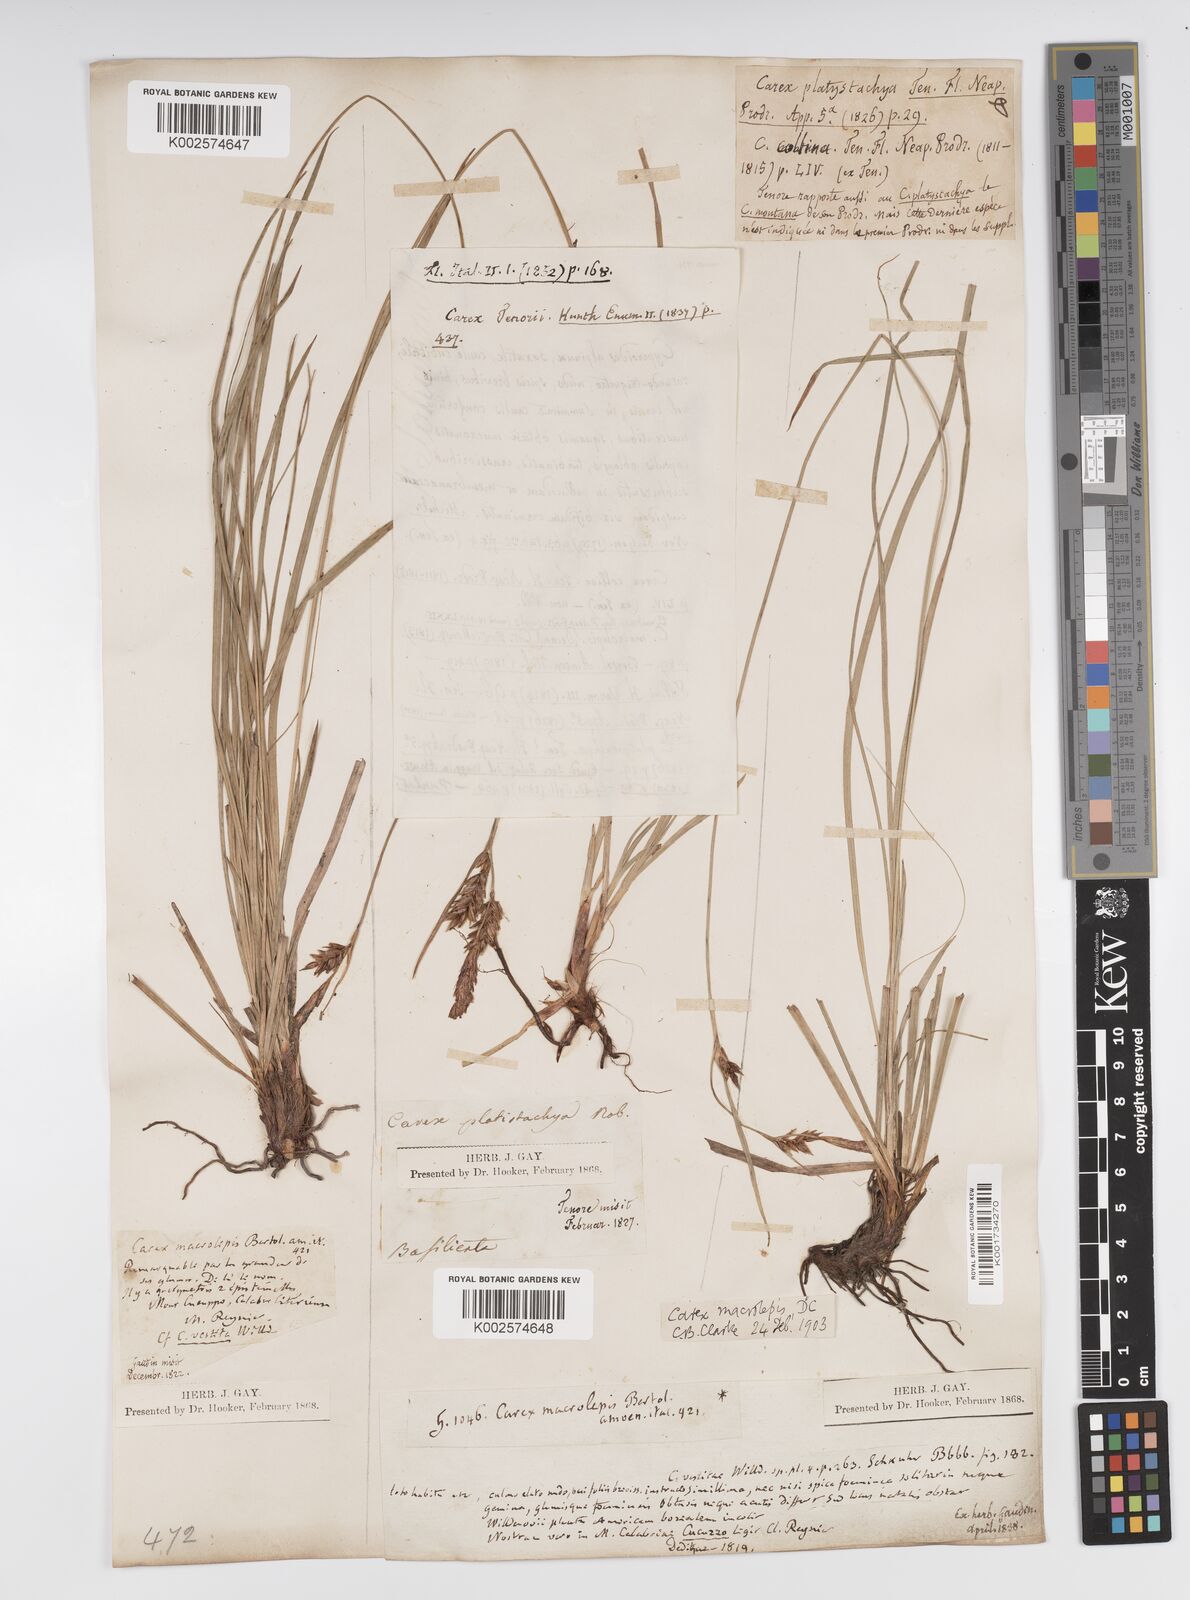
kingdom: Plantae
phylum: Tracheophyta
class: Liliopsida
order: Poales
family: Cyperaceae
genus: Carex
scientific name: Carex macrolepis
